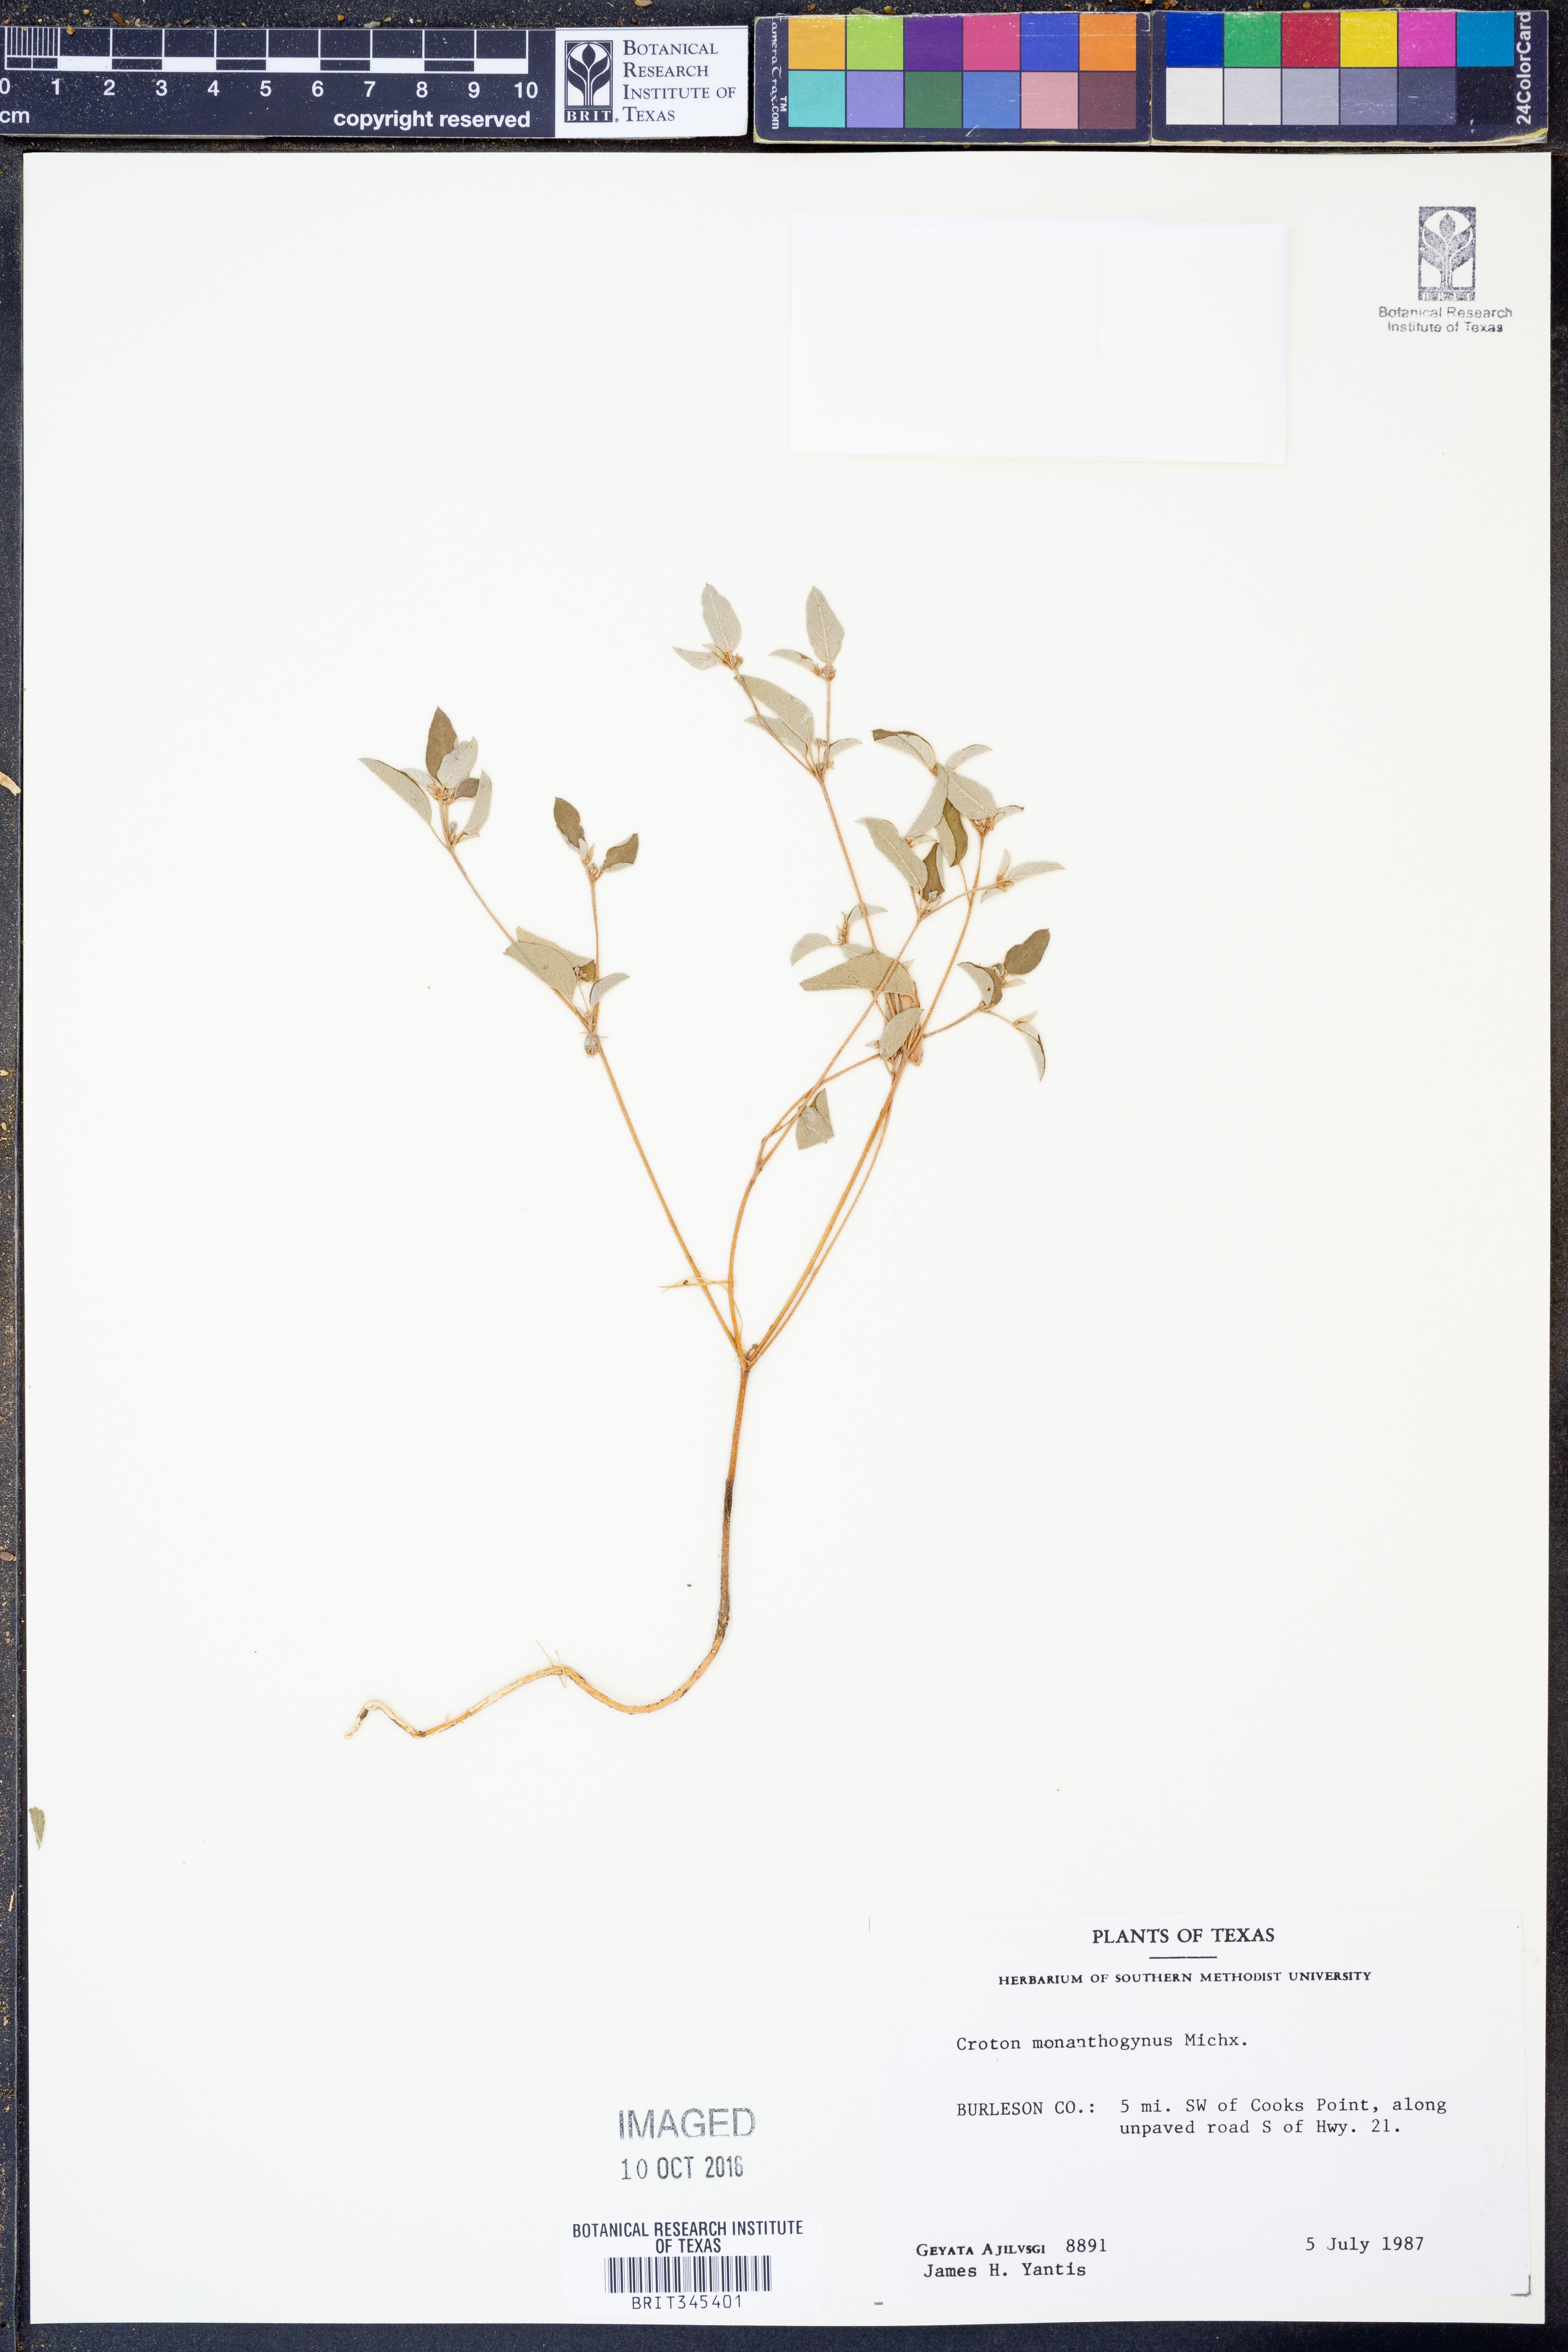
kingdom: Plantae
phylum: Tracheophyta
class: Magnoliopsida
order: Malpighiales
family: Euphorbiaceae
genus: Croton
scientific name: Croton monanthogynus
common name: One-seed croton
